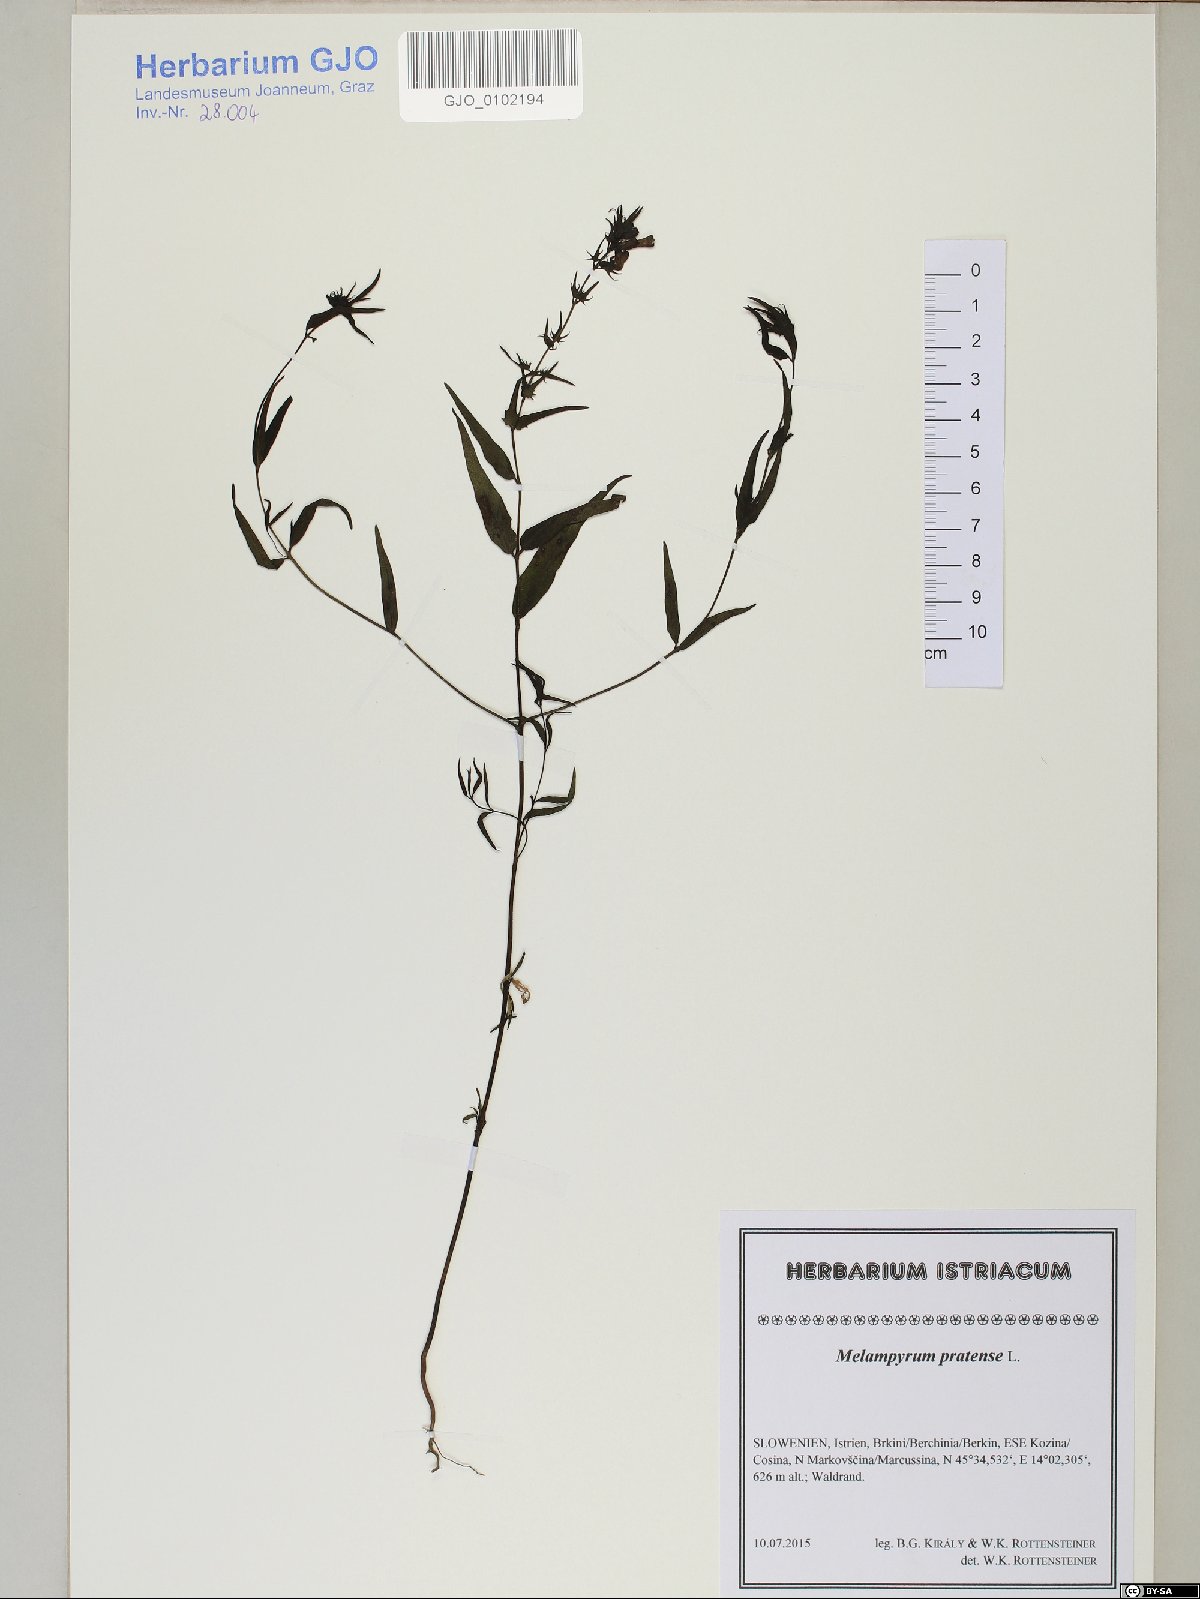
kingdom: Plantae
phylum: Tracheophyta
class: Magnoliopsida
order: Lamiales
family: Orobanchaceae
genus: Melampyrum
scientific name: Melampyrum pratense
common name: Common cow-wheat
